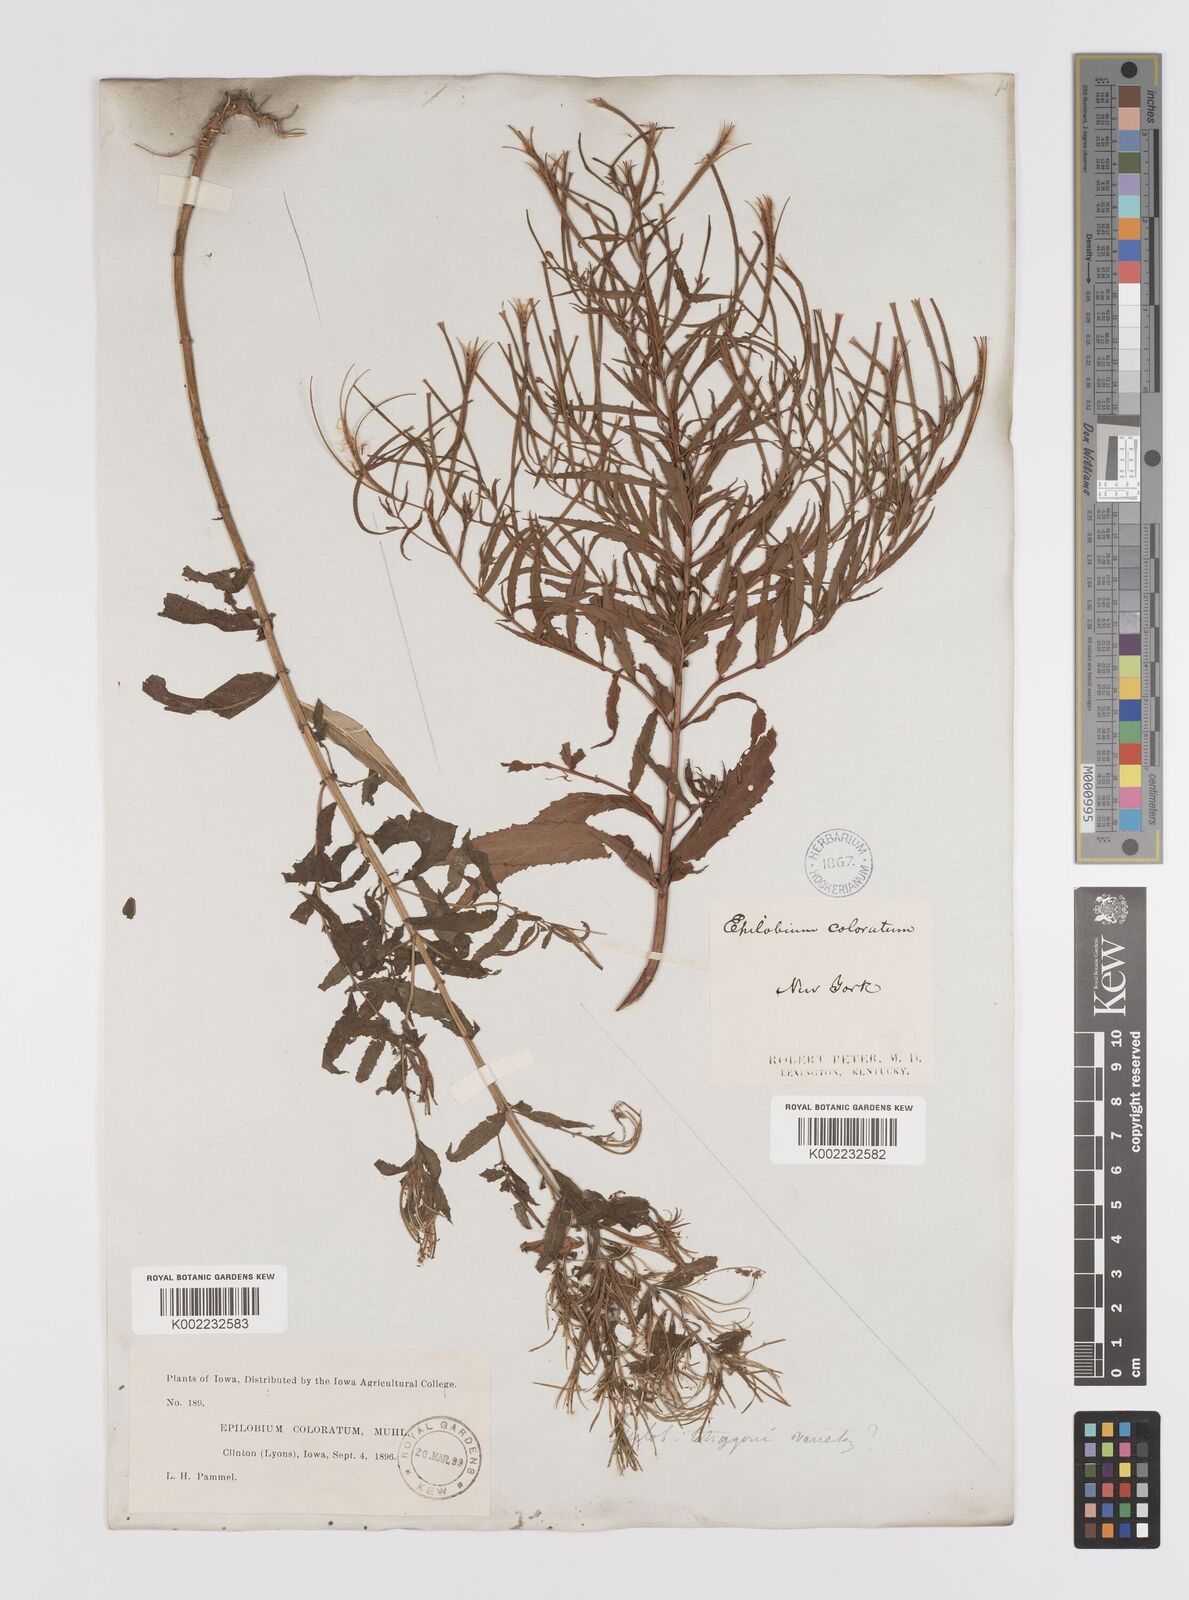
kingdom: Plantae
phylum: Tracheophyta
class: Magnoliopsida
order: Myrtales
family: Onagraceae
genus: Epilobium
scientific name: Epilobium coloratum
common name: Bronze willowherb
